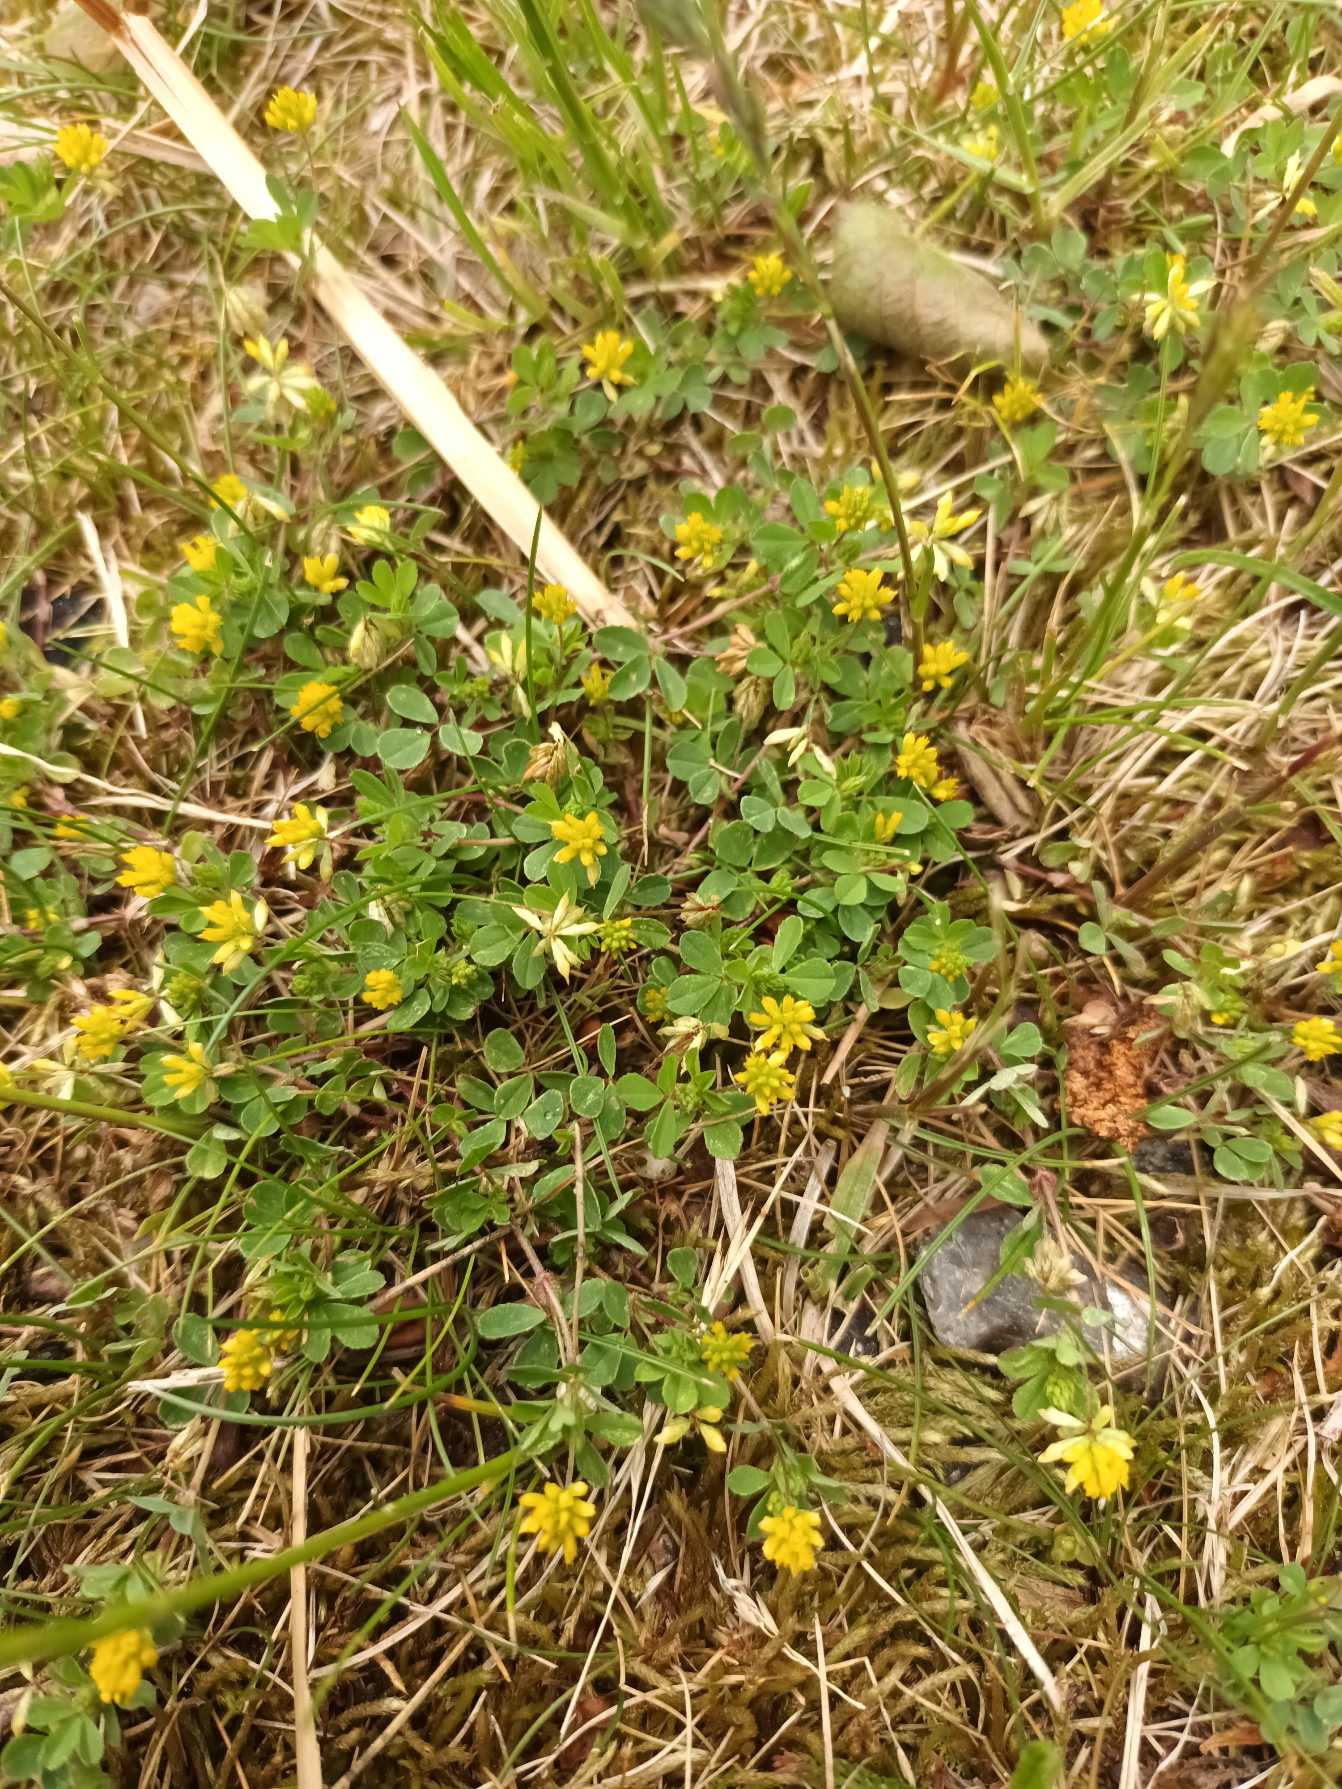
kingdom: Plantae
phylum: Tracheophyta
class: Magnoliopsida
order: Fabales
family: Fabaceae
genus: Trifolium
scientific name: Trifolium dubium
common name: Fin kløver
